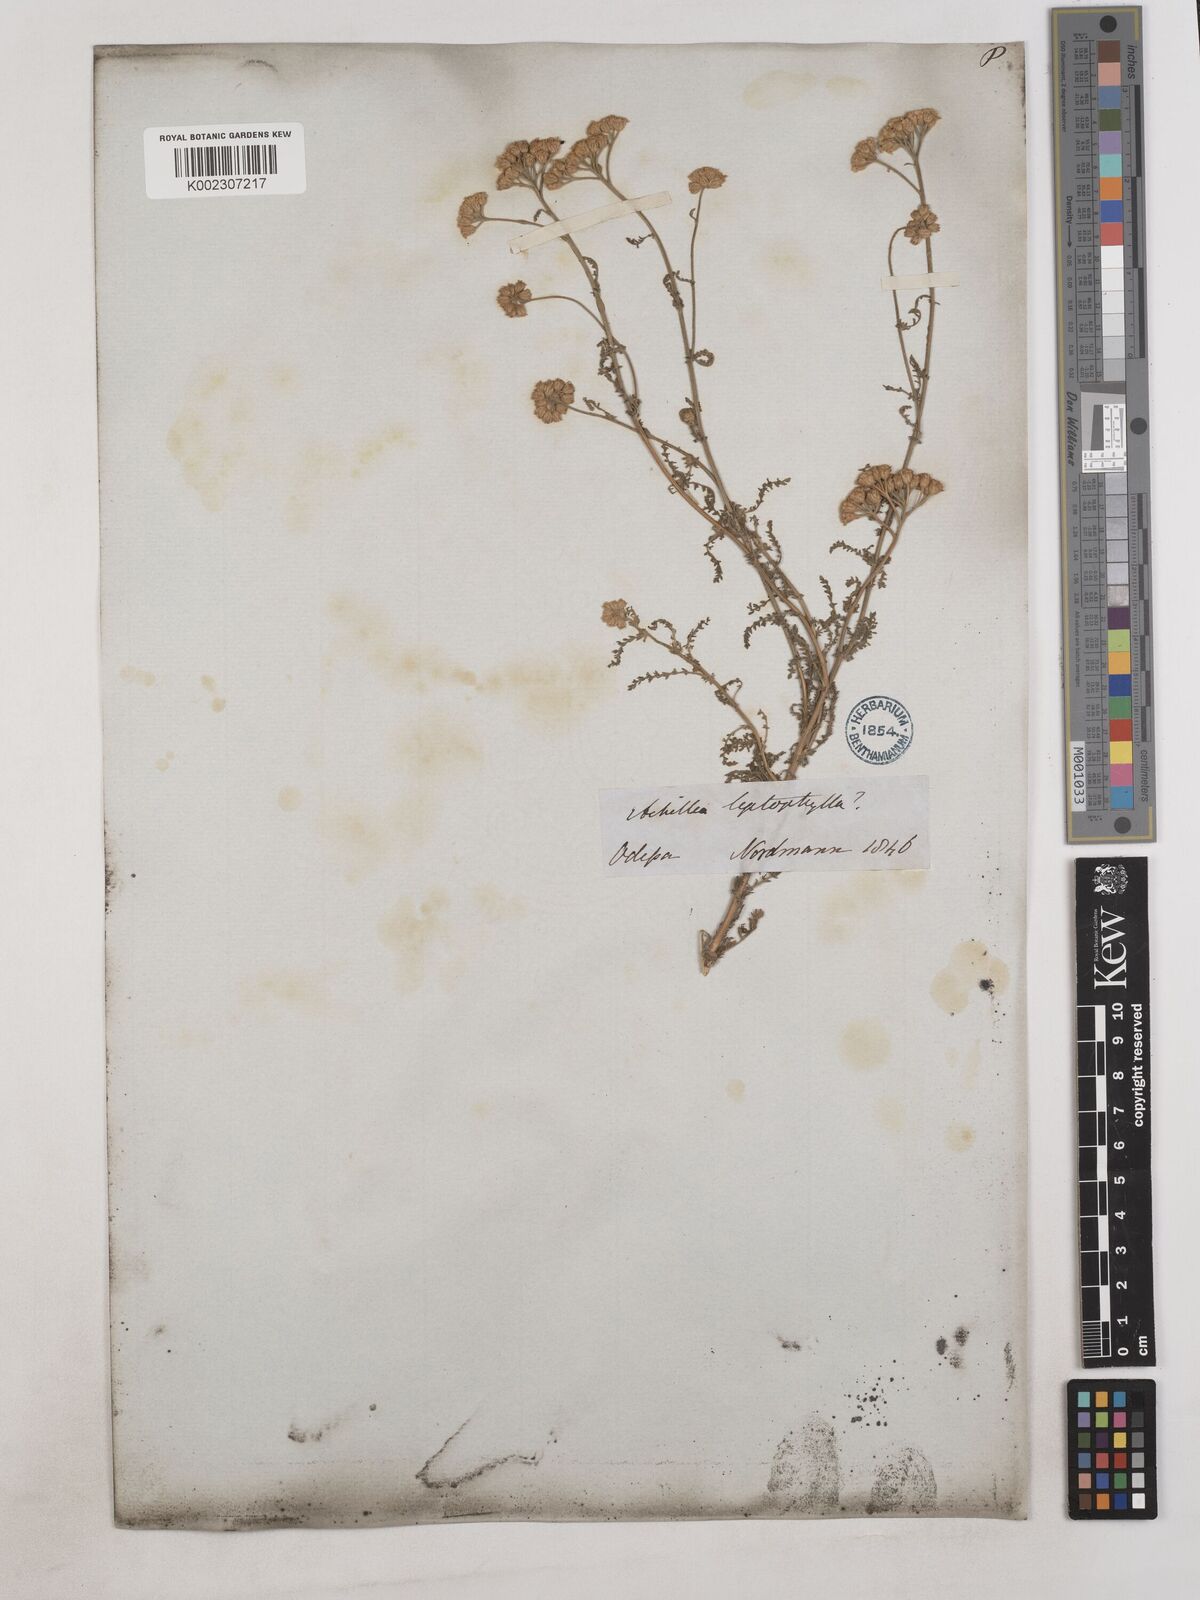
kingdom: Plantae
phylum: Tracheophyta
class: Magnoliopsida
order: Asterales
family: Asteraceae
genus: Achillea
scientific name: Achillea leptophylla
